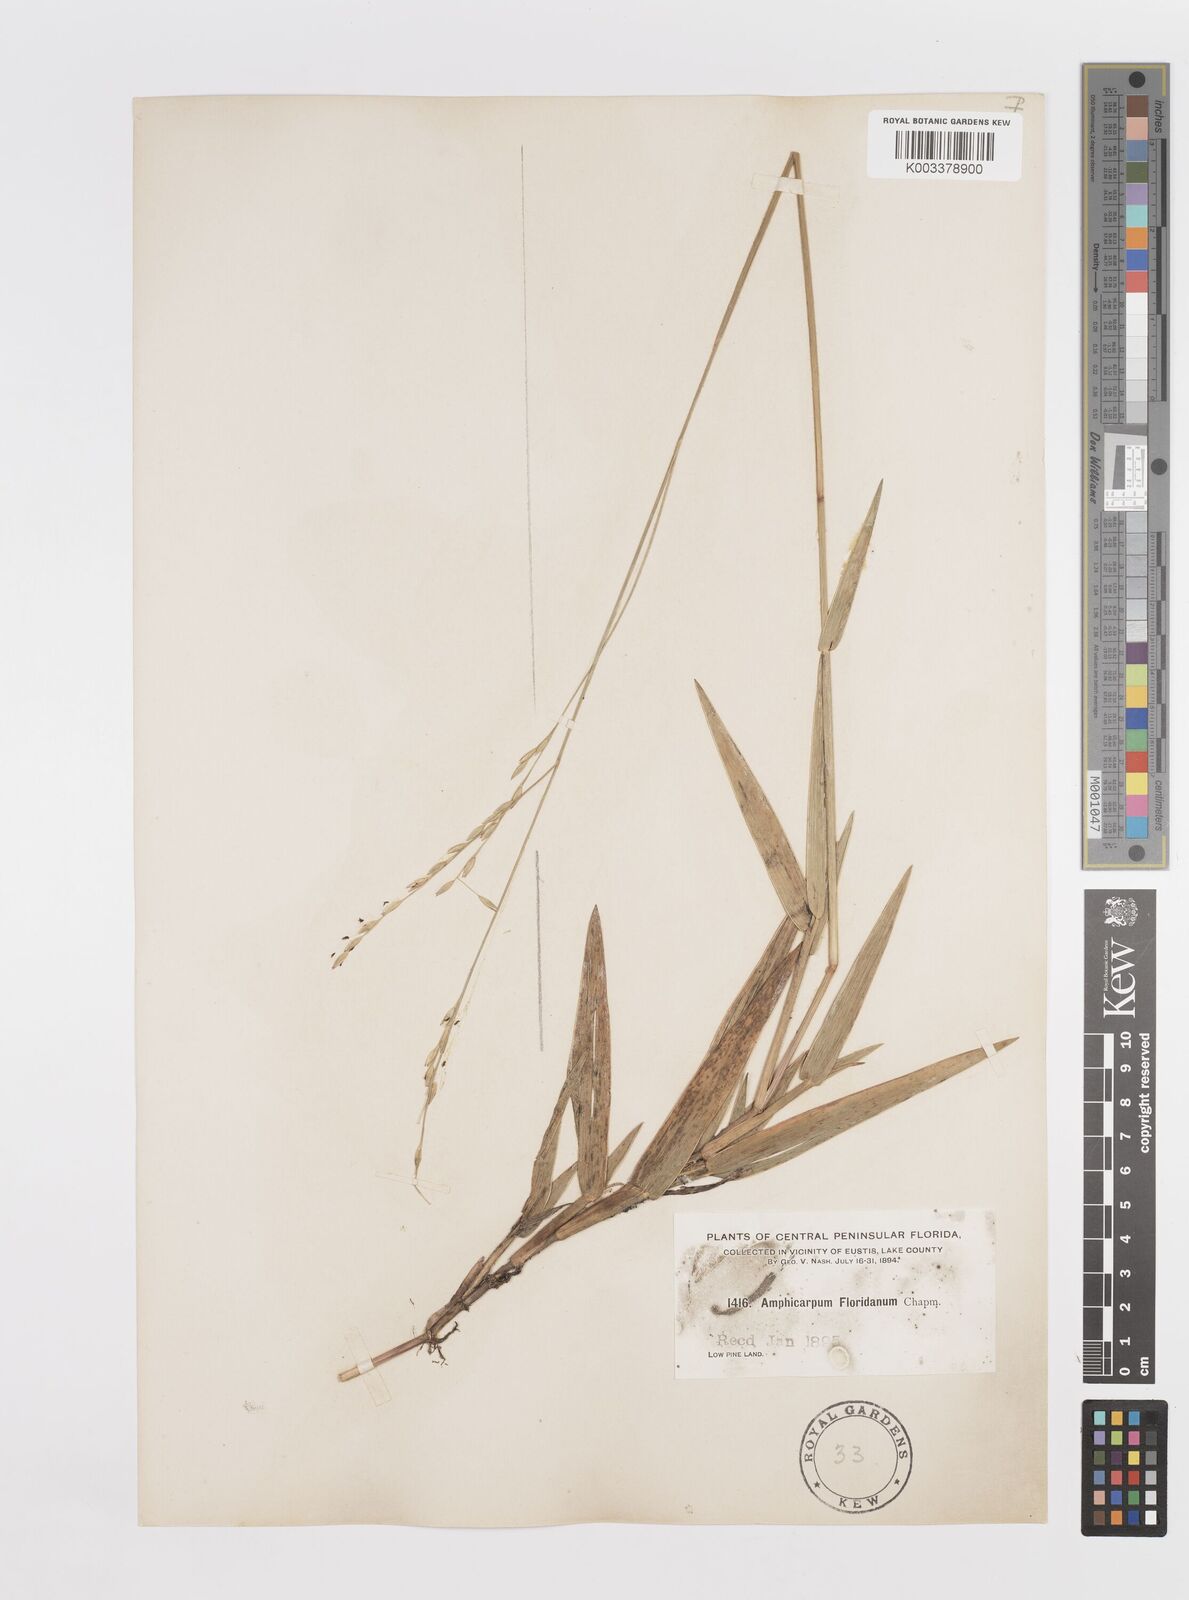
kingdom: Plantae
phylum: Tracheophyta
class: Liliopsida
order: Poales
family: Poaceae
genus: Amphicarpum
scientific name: Amphicarpum muehlenbergianum
